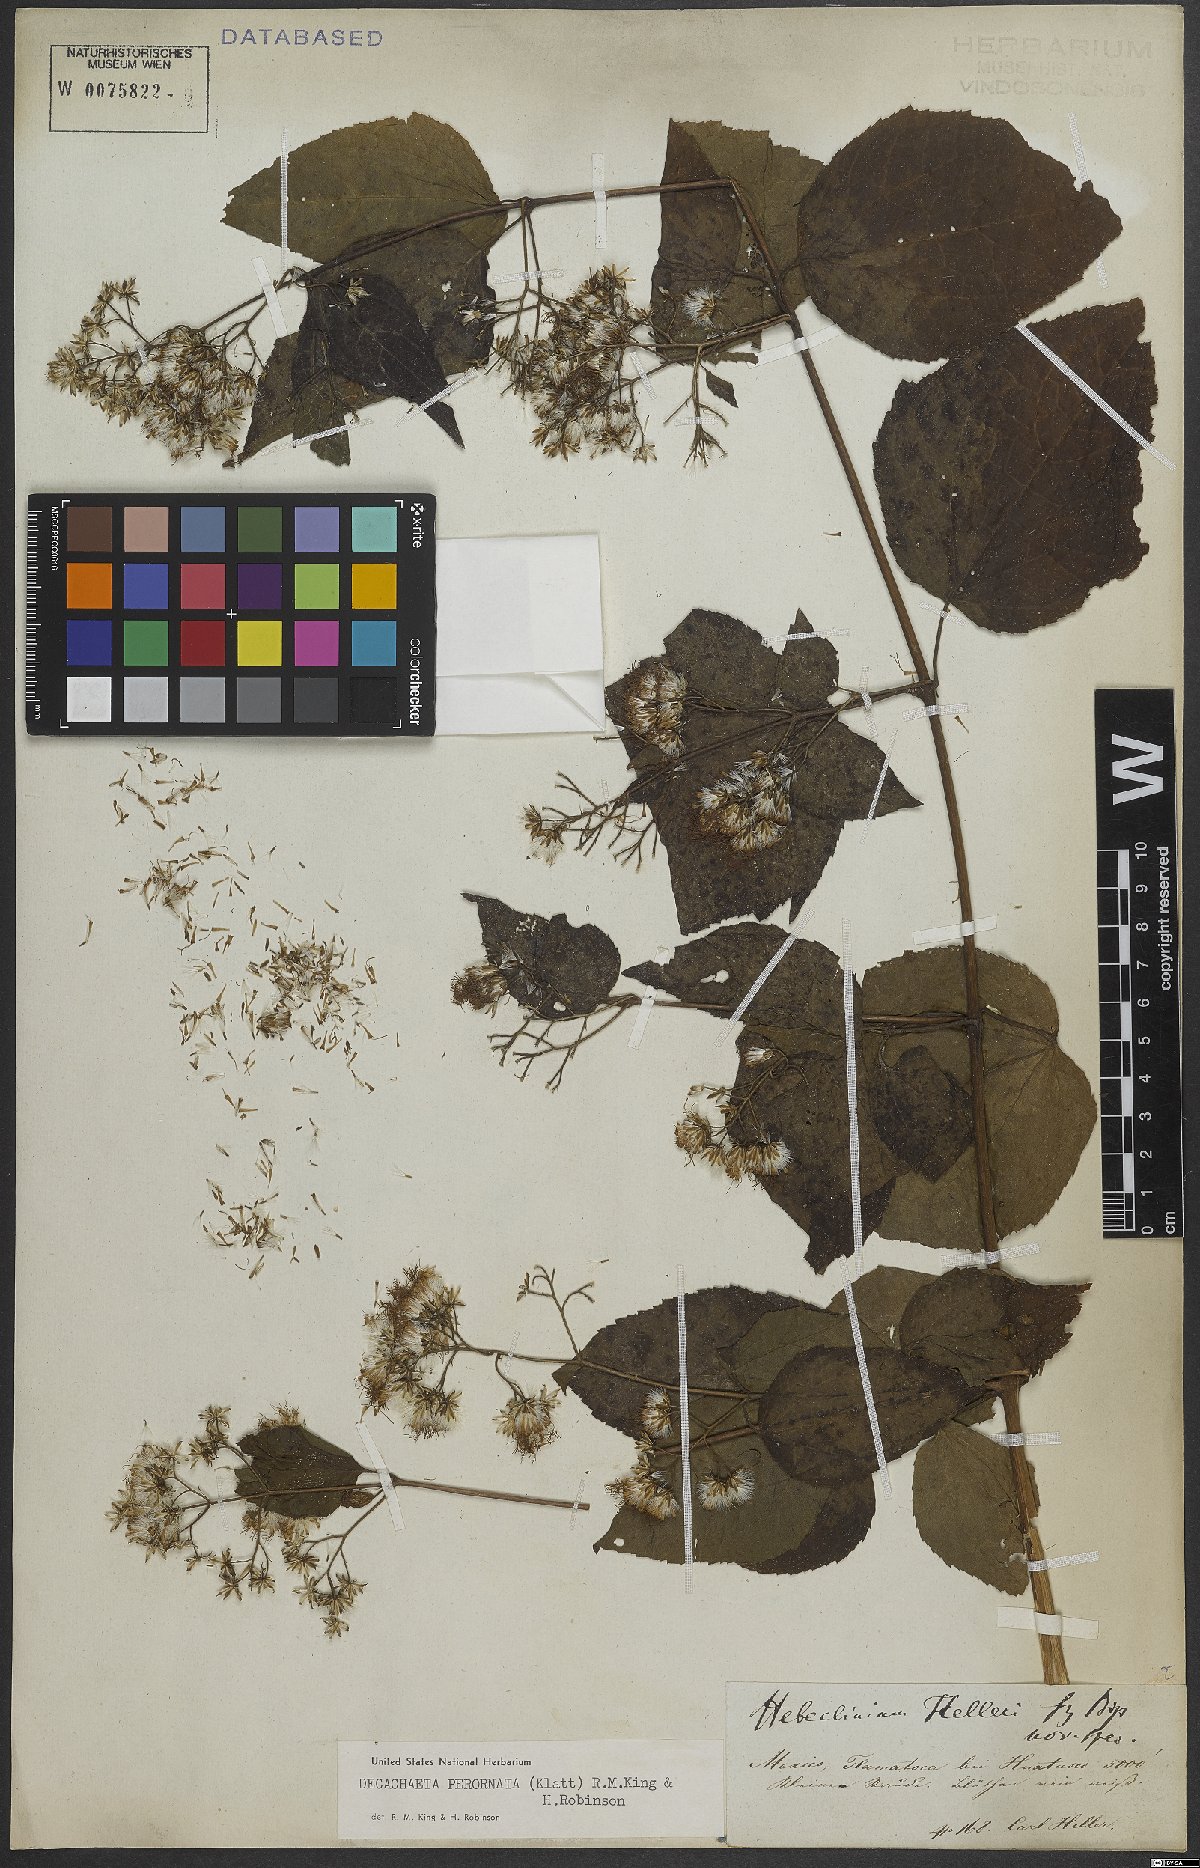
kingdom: Plantae
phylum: Tracheophyta
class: Magnoliopsida
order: Asterales
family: Asteraceae
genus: Decachaeta
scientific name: Decachaeta perornata
